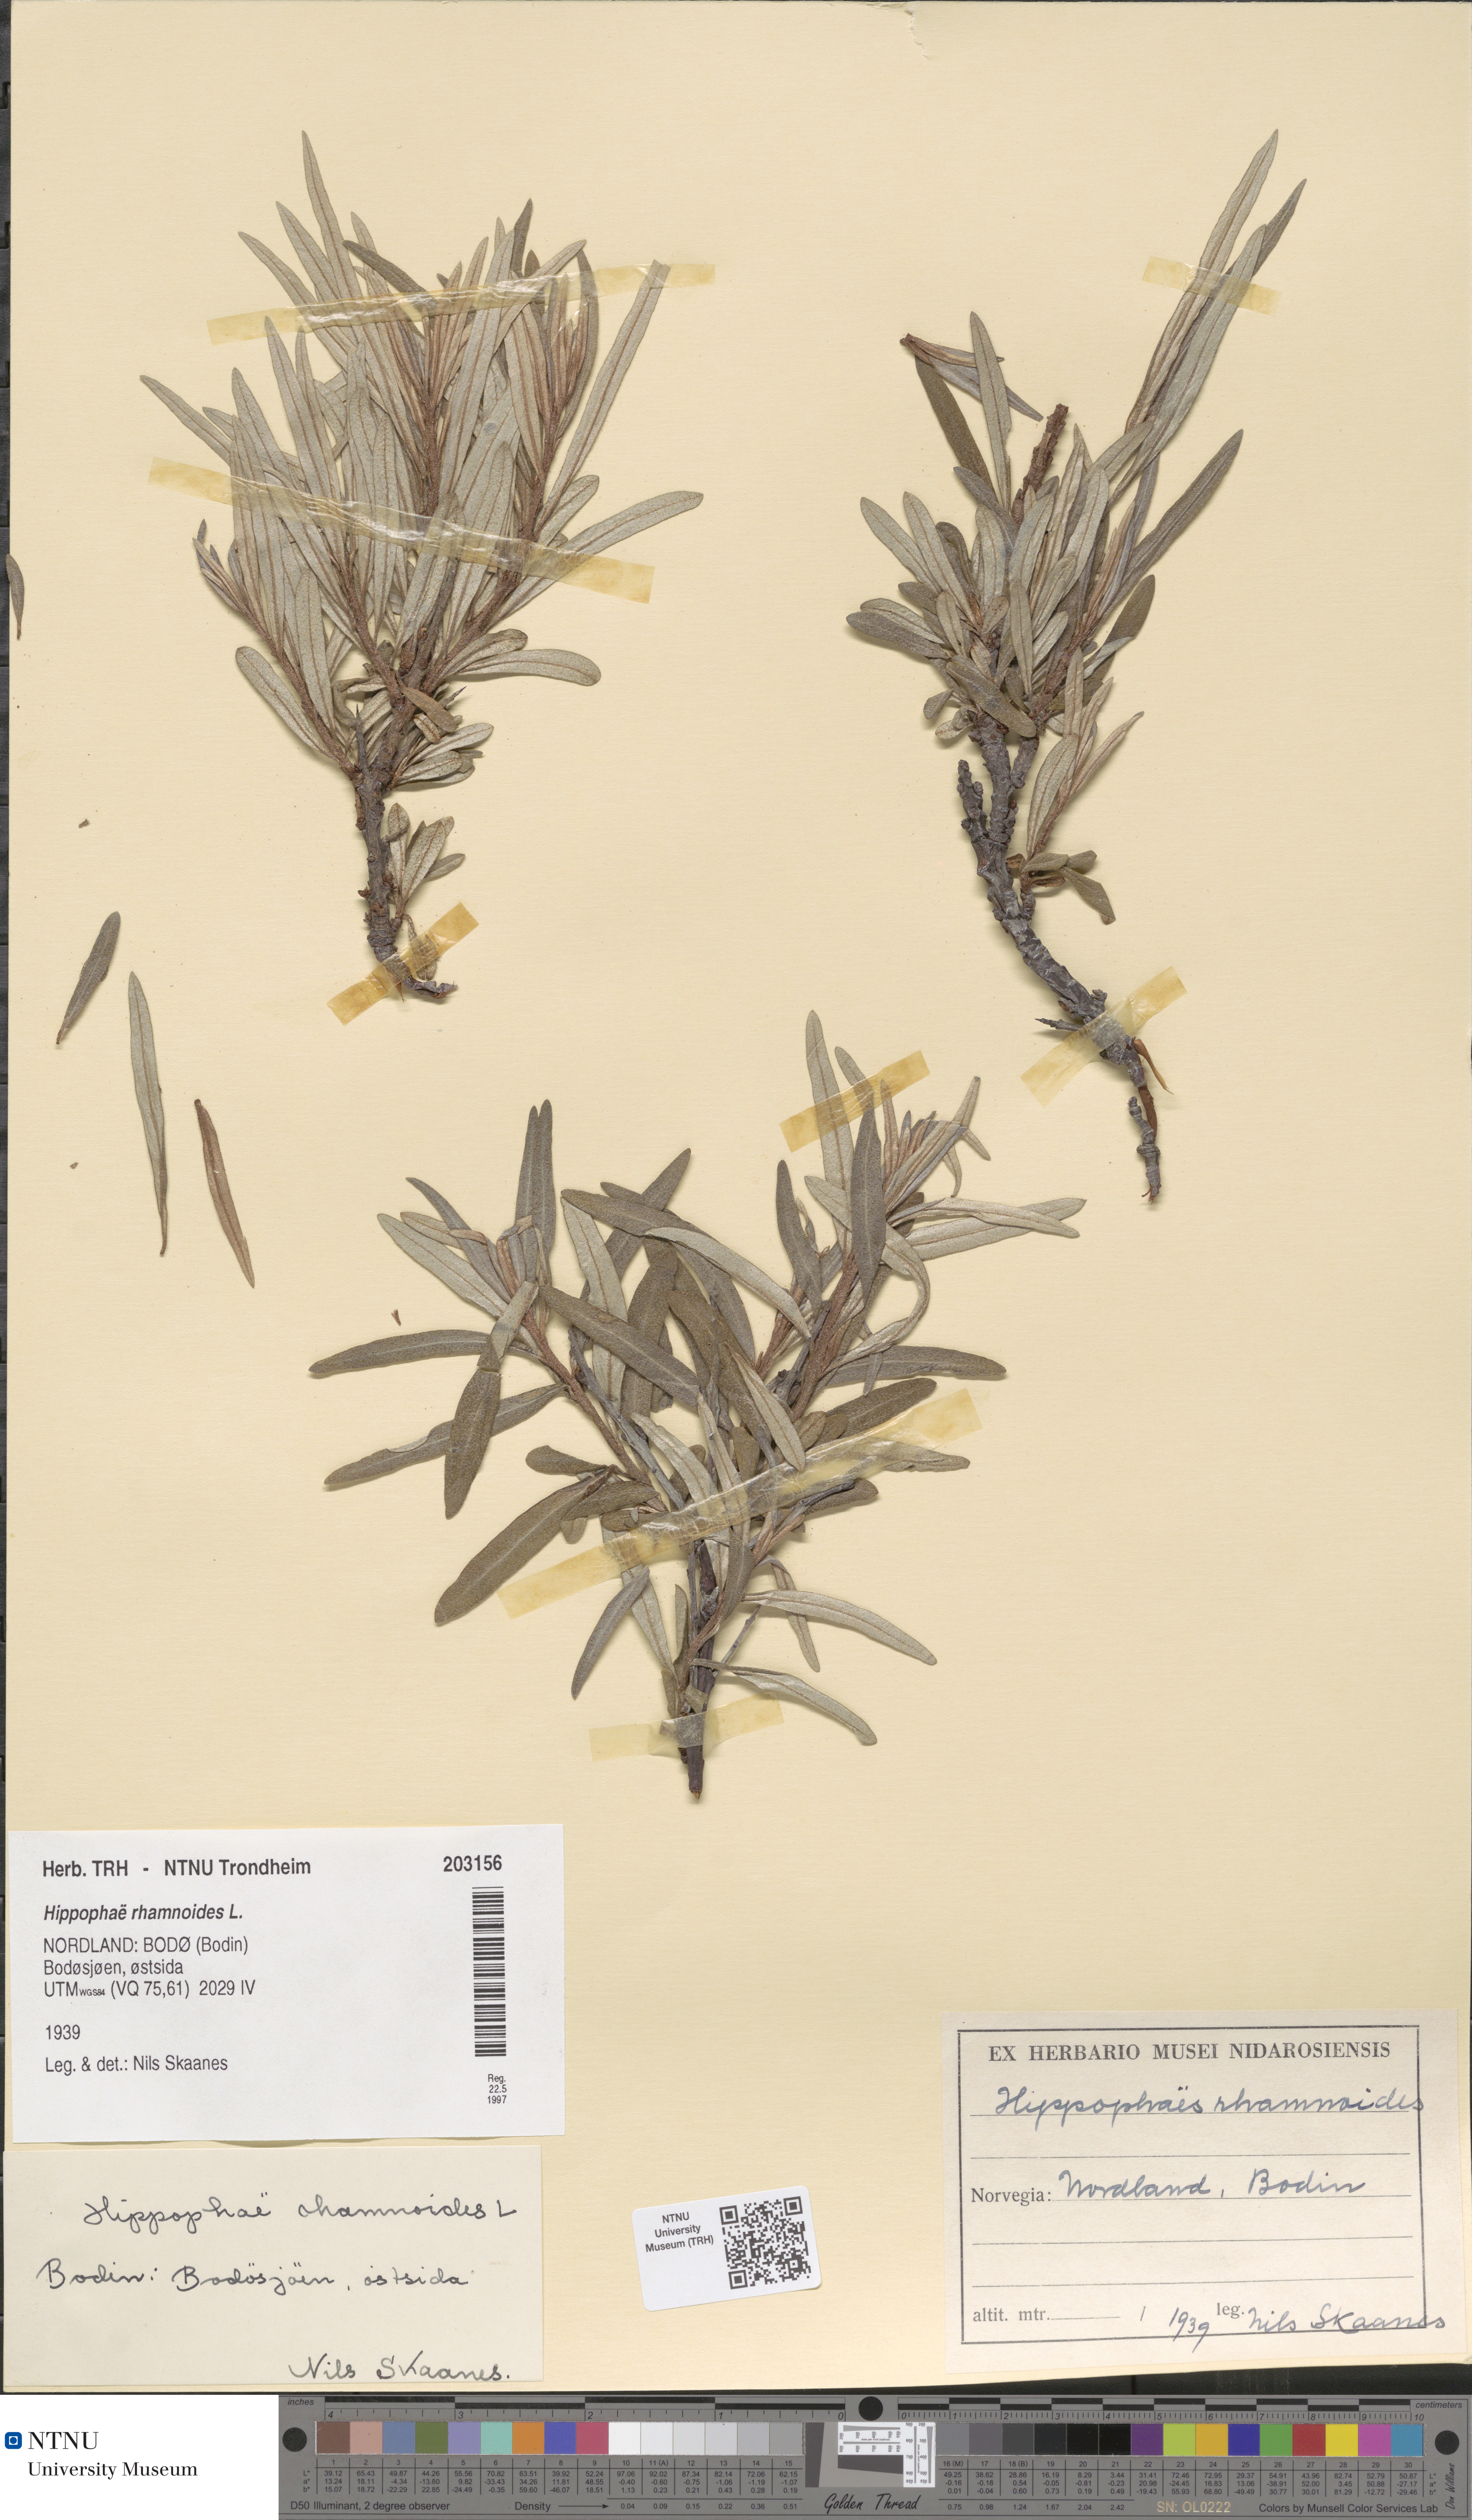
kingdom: Plantae
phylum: Tracheophyta
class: Magnoliopsida
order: Rosales
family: Elaeagnaceae
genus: Hippophae
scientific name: Hippophae rhamnoides
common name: Sea-buckthorn
